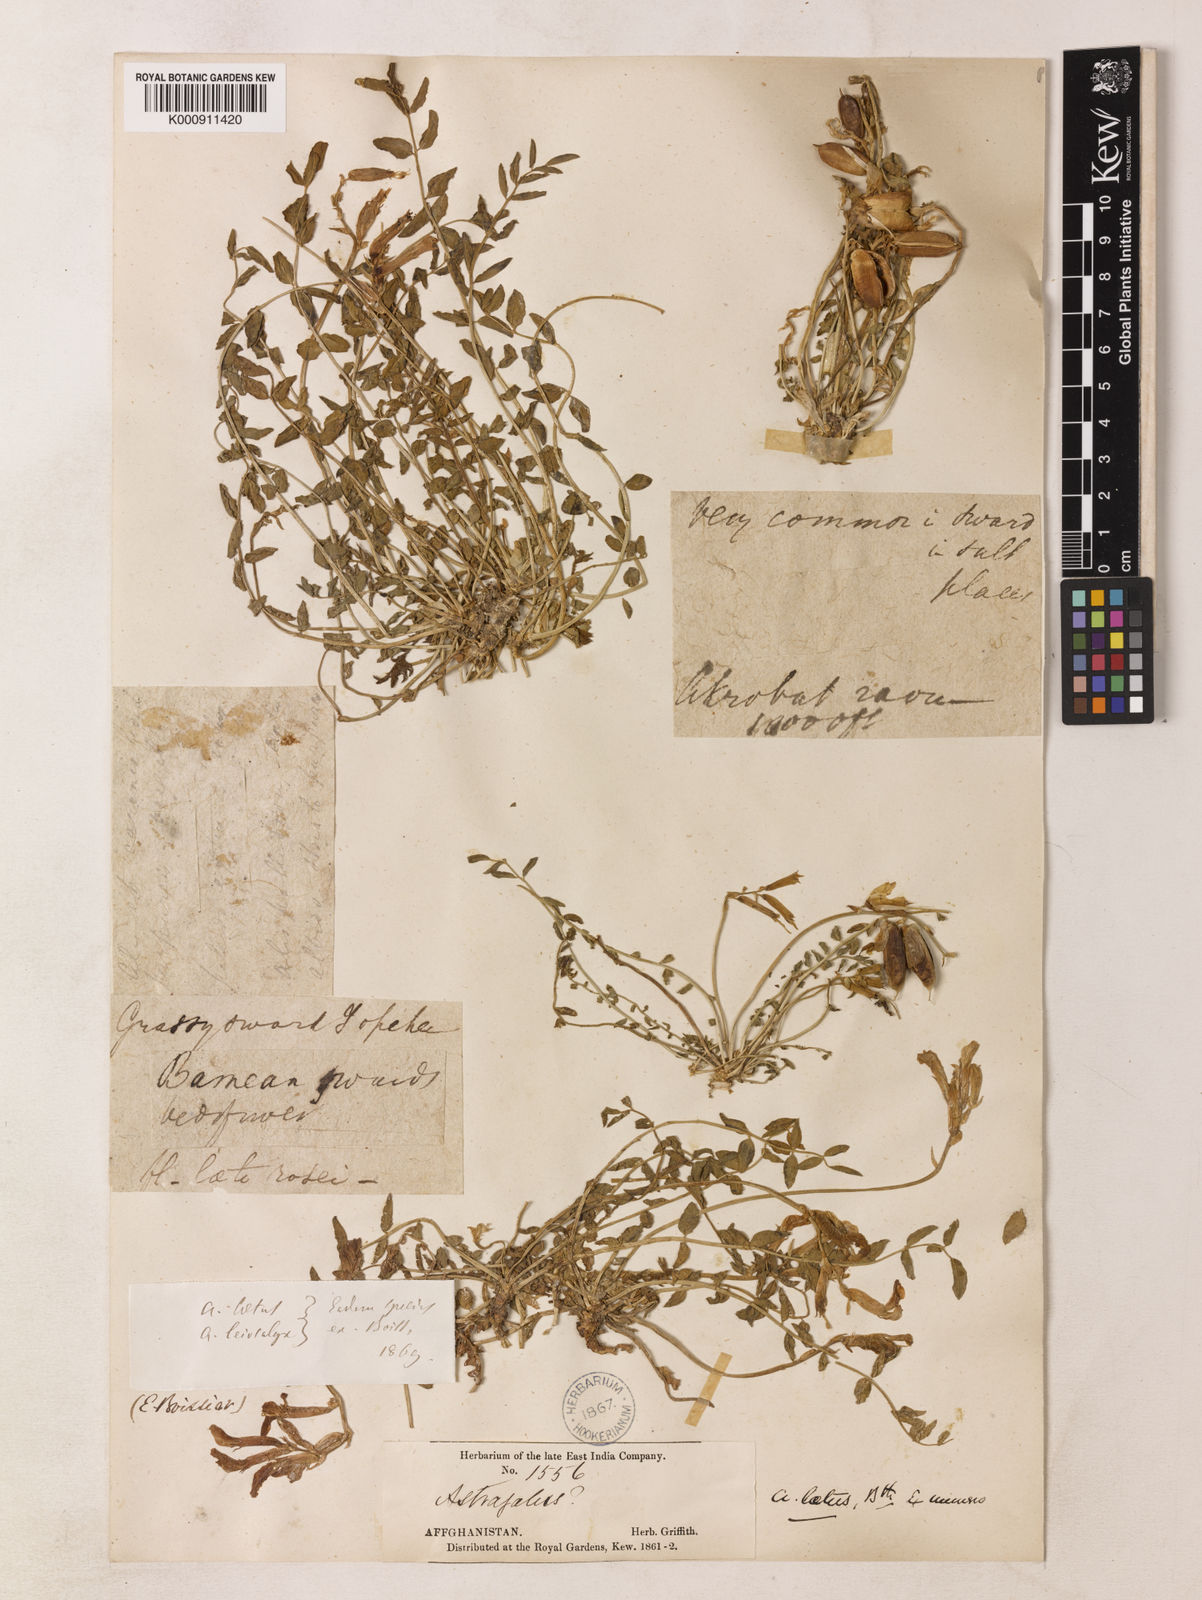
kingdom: Plantae
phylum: Tracheophyta
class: Magnoliopsida
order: Fabales
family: Fabaceae
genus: Astragalus
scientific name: Astragalus laetus
